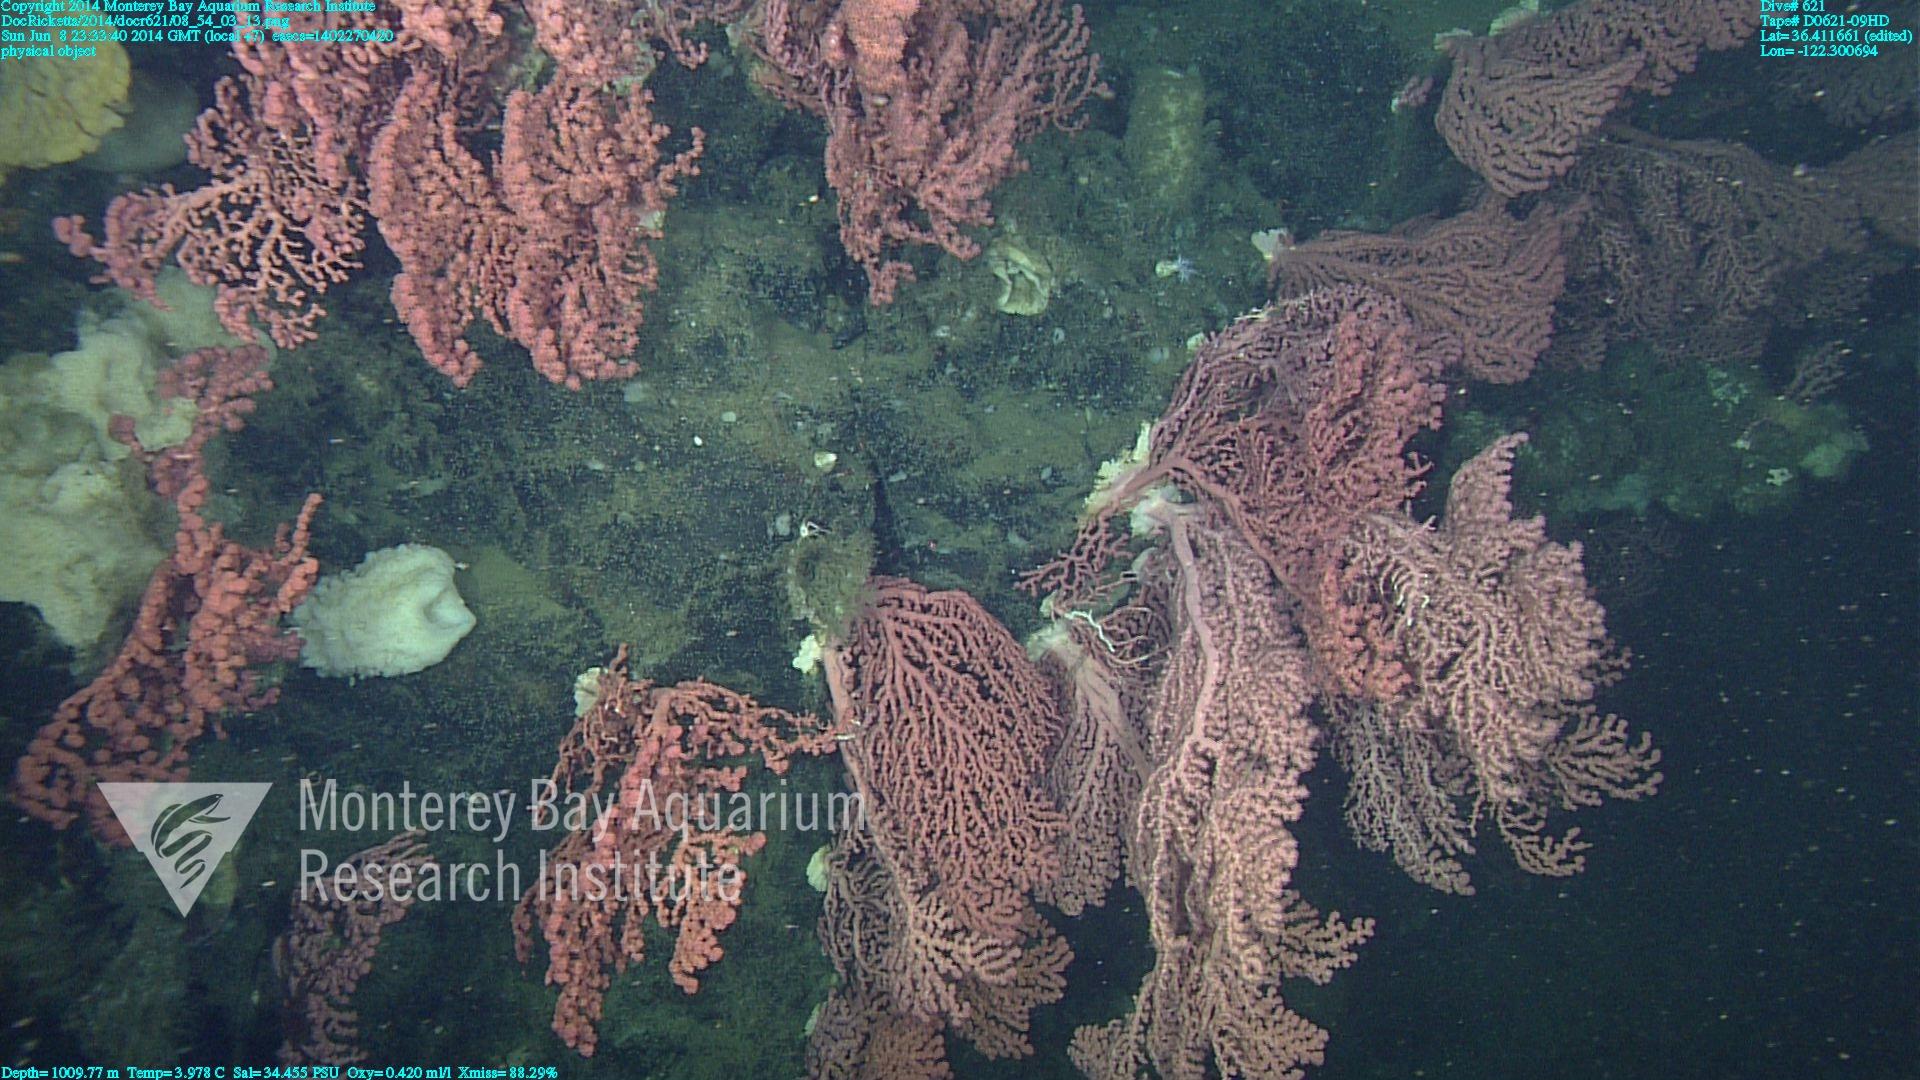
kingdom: Animalia
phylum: Cnidaria
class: Anthozoa
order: Scleralcyonacea
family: Coralliidae
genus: Paragorgia
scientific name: Paragorgia arborea
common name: Bubble gum coral
